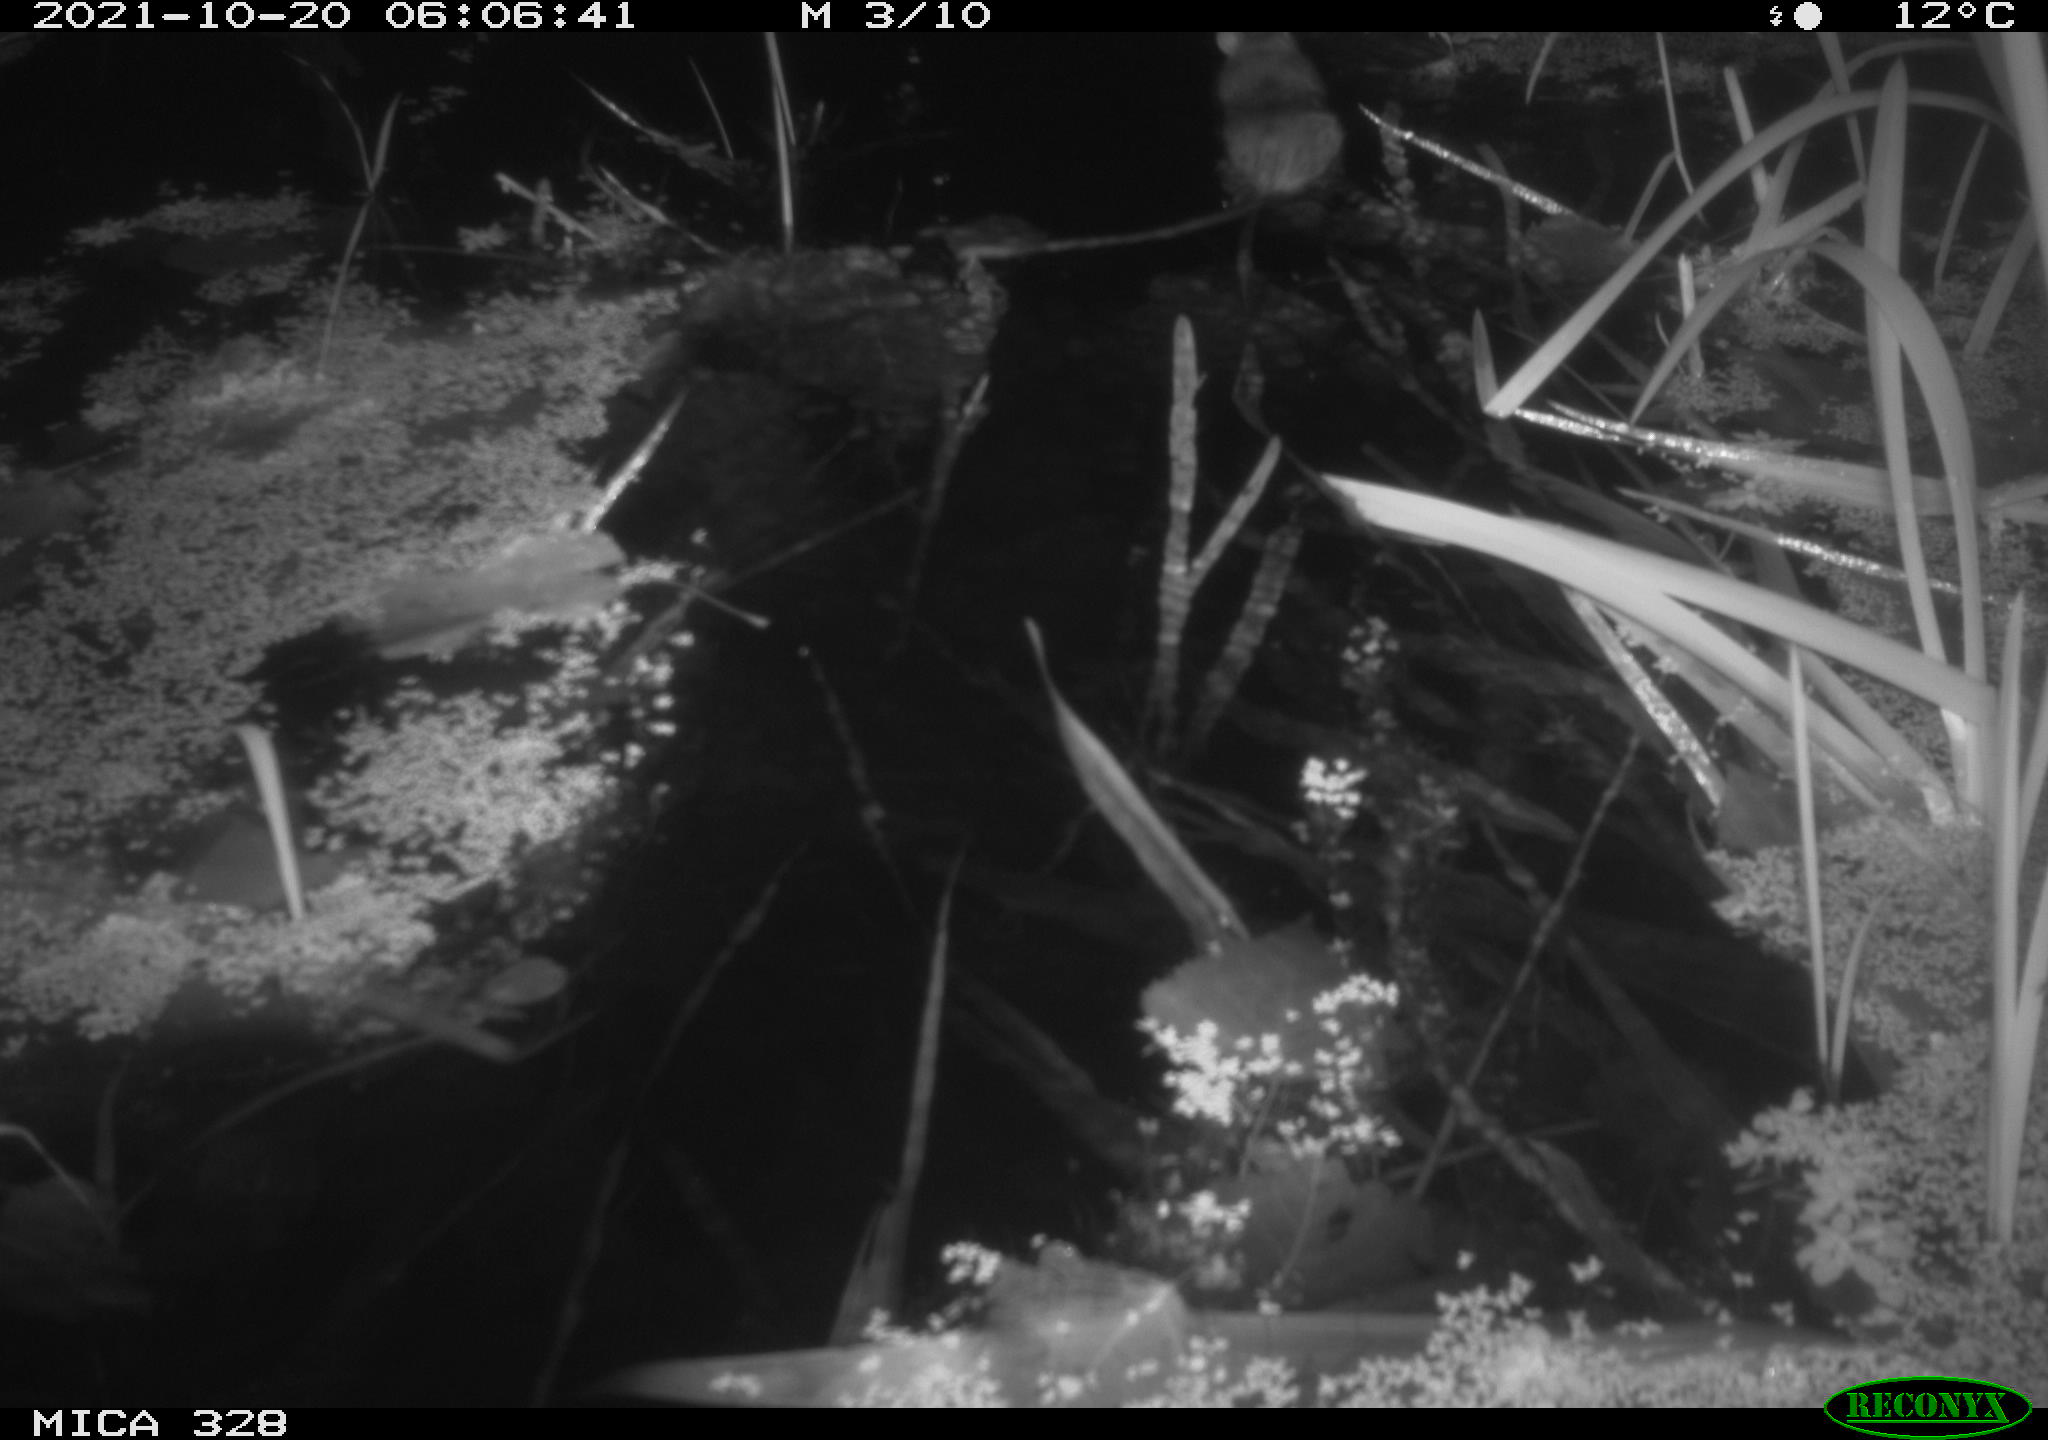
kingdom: Animalia
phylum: Chordata
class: Mammalia
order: Rodentia
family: Muridae
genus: Rattus
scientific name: Rattus norvegicus
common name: Brown rat
